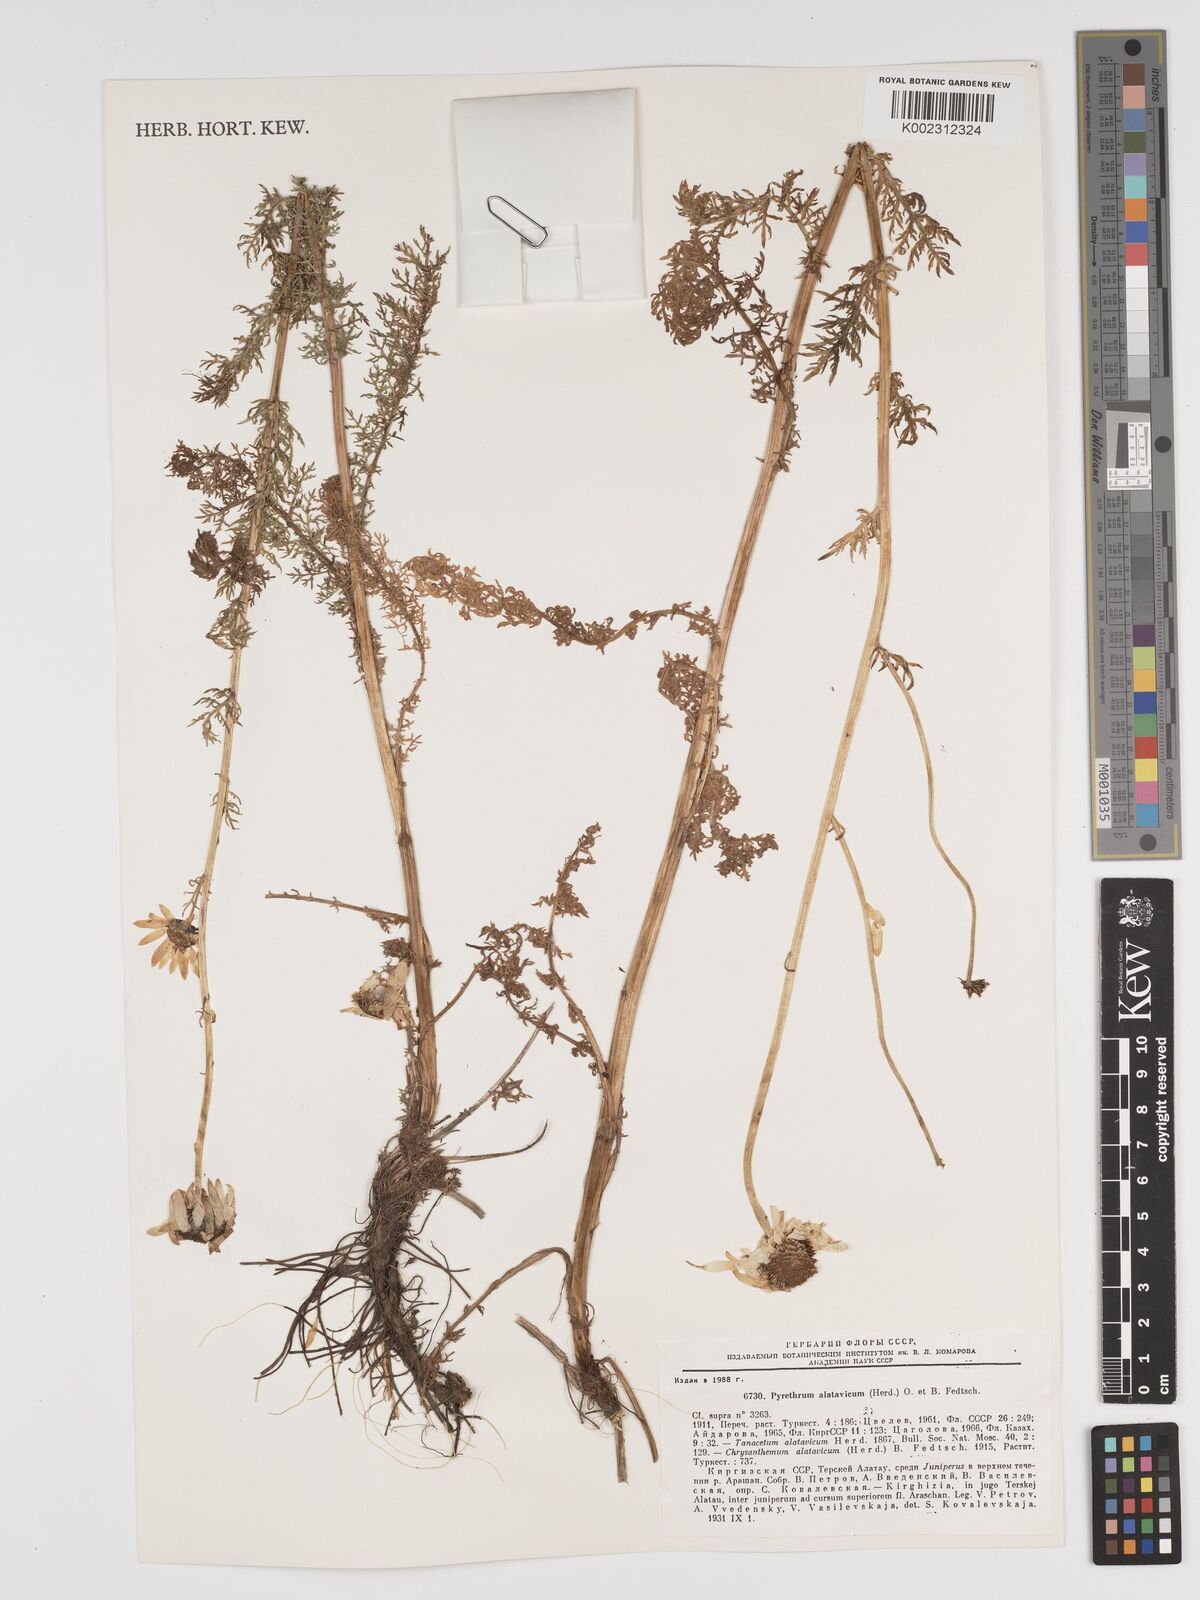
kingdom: Plantae
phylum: Tracheophyta
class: Magnoliopsida
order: Asterales
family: Asteraceae
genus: Tanacetum
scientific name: Tanacetum alatavicum
